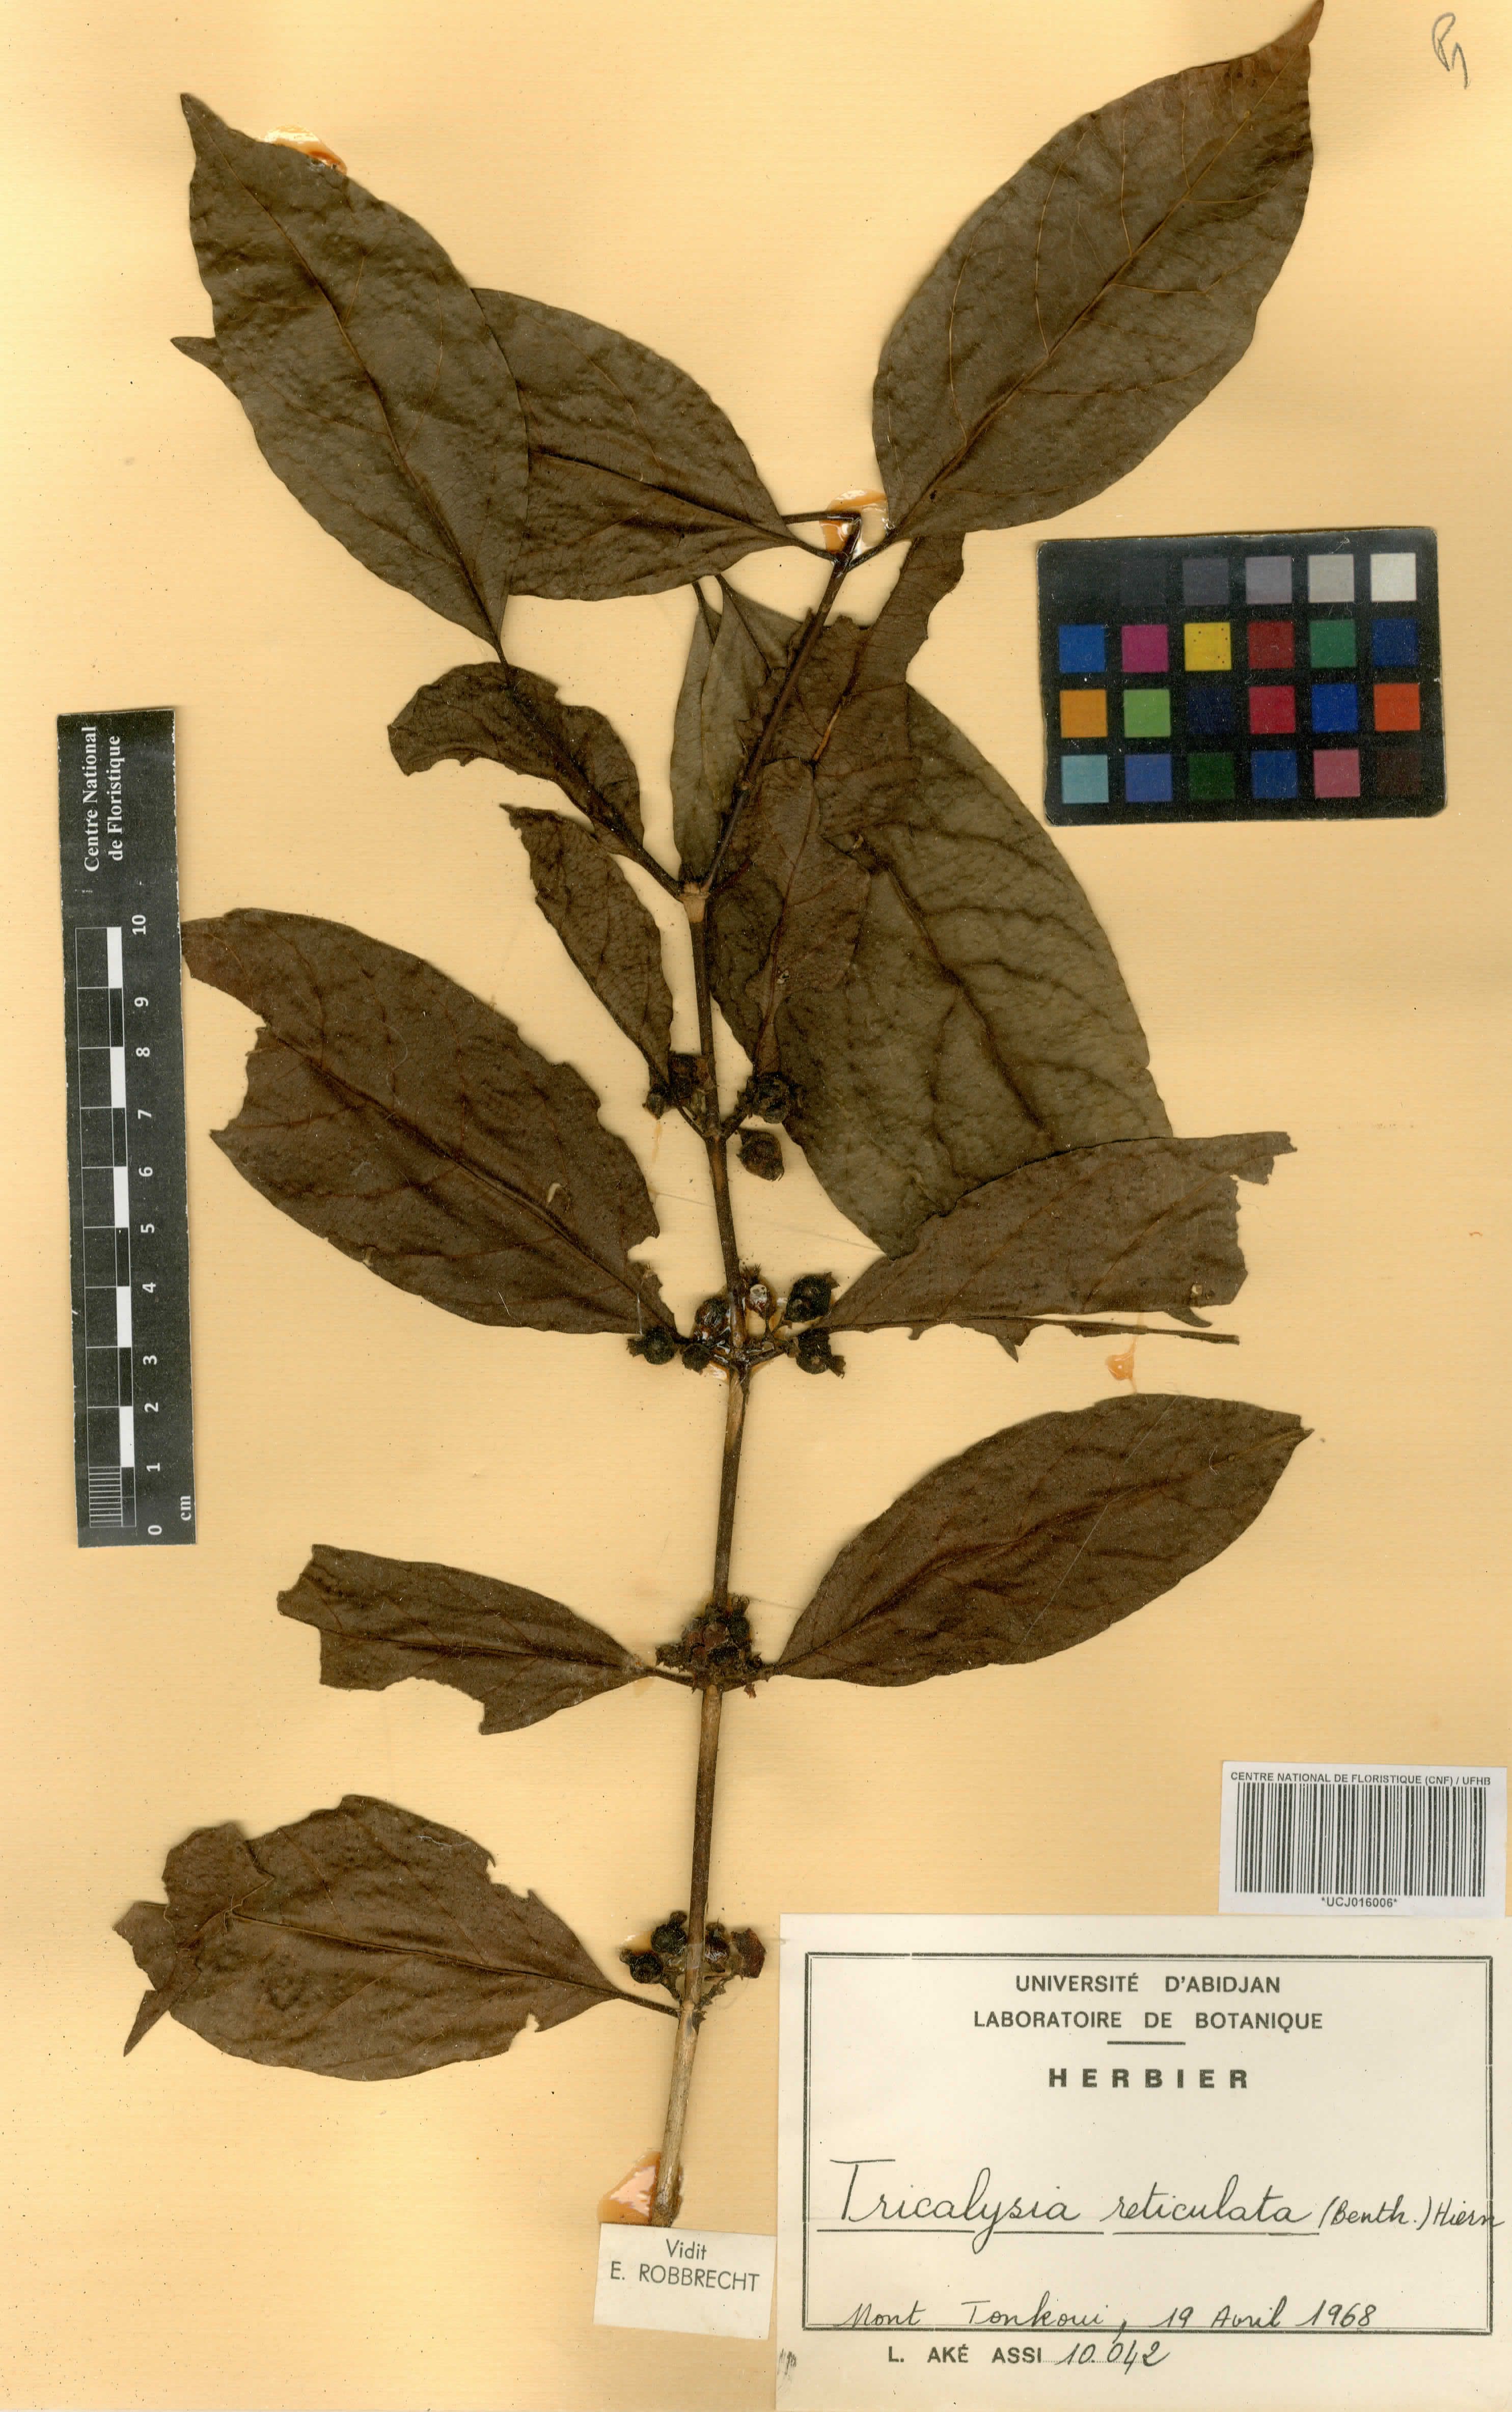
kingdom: Plantae
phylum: Tracheophyta
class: Magnoliopsida
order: Gentianales
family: Rubiaceae
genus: Tricalysia
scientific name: Tricalysia reticulata
